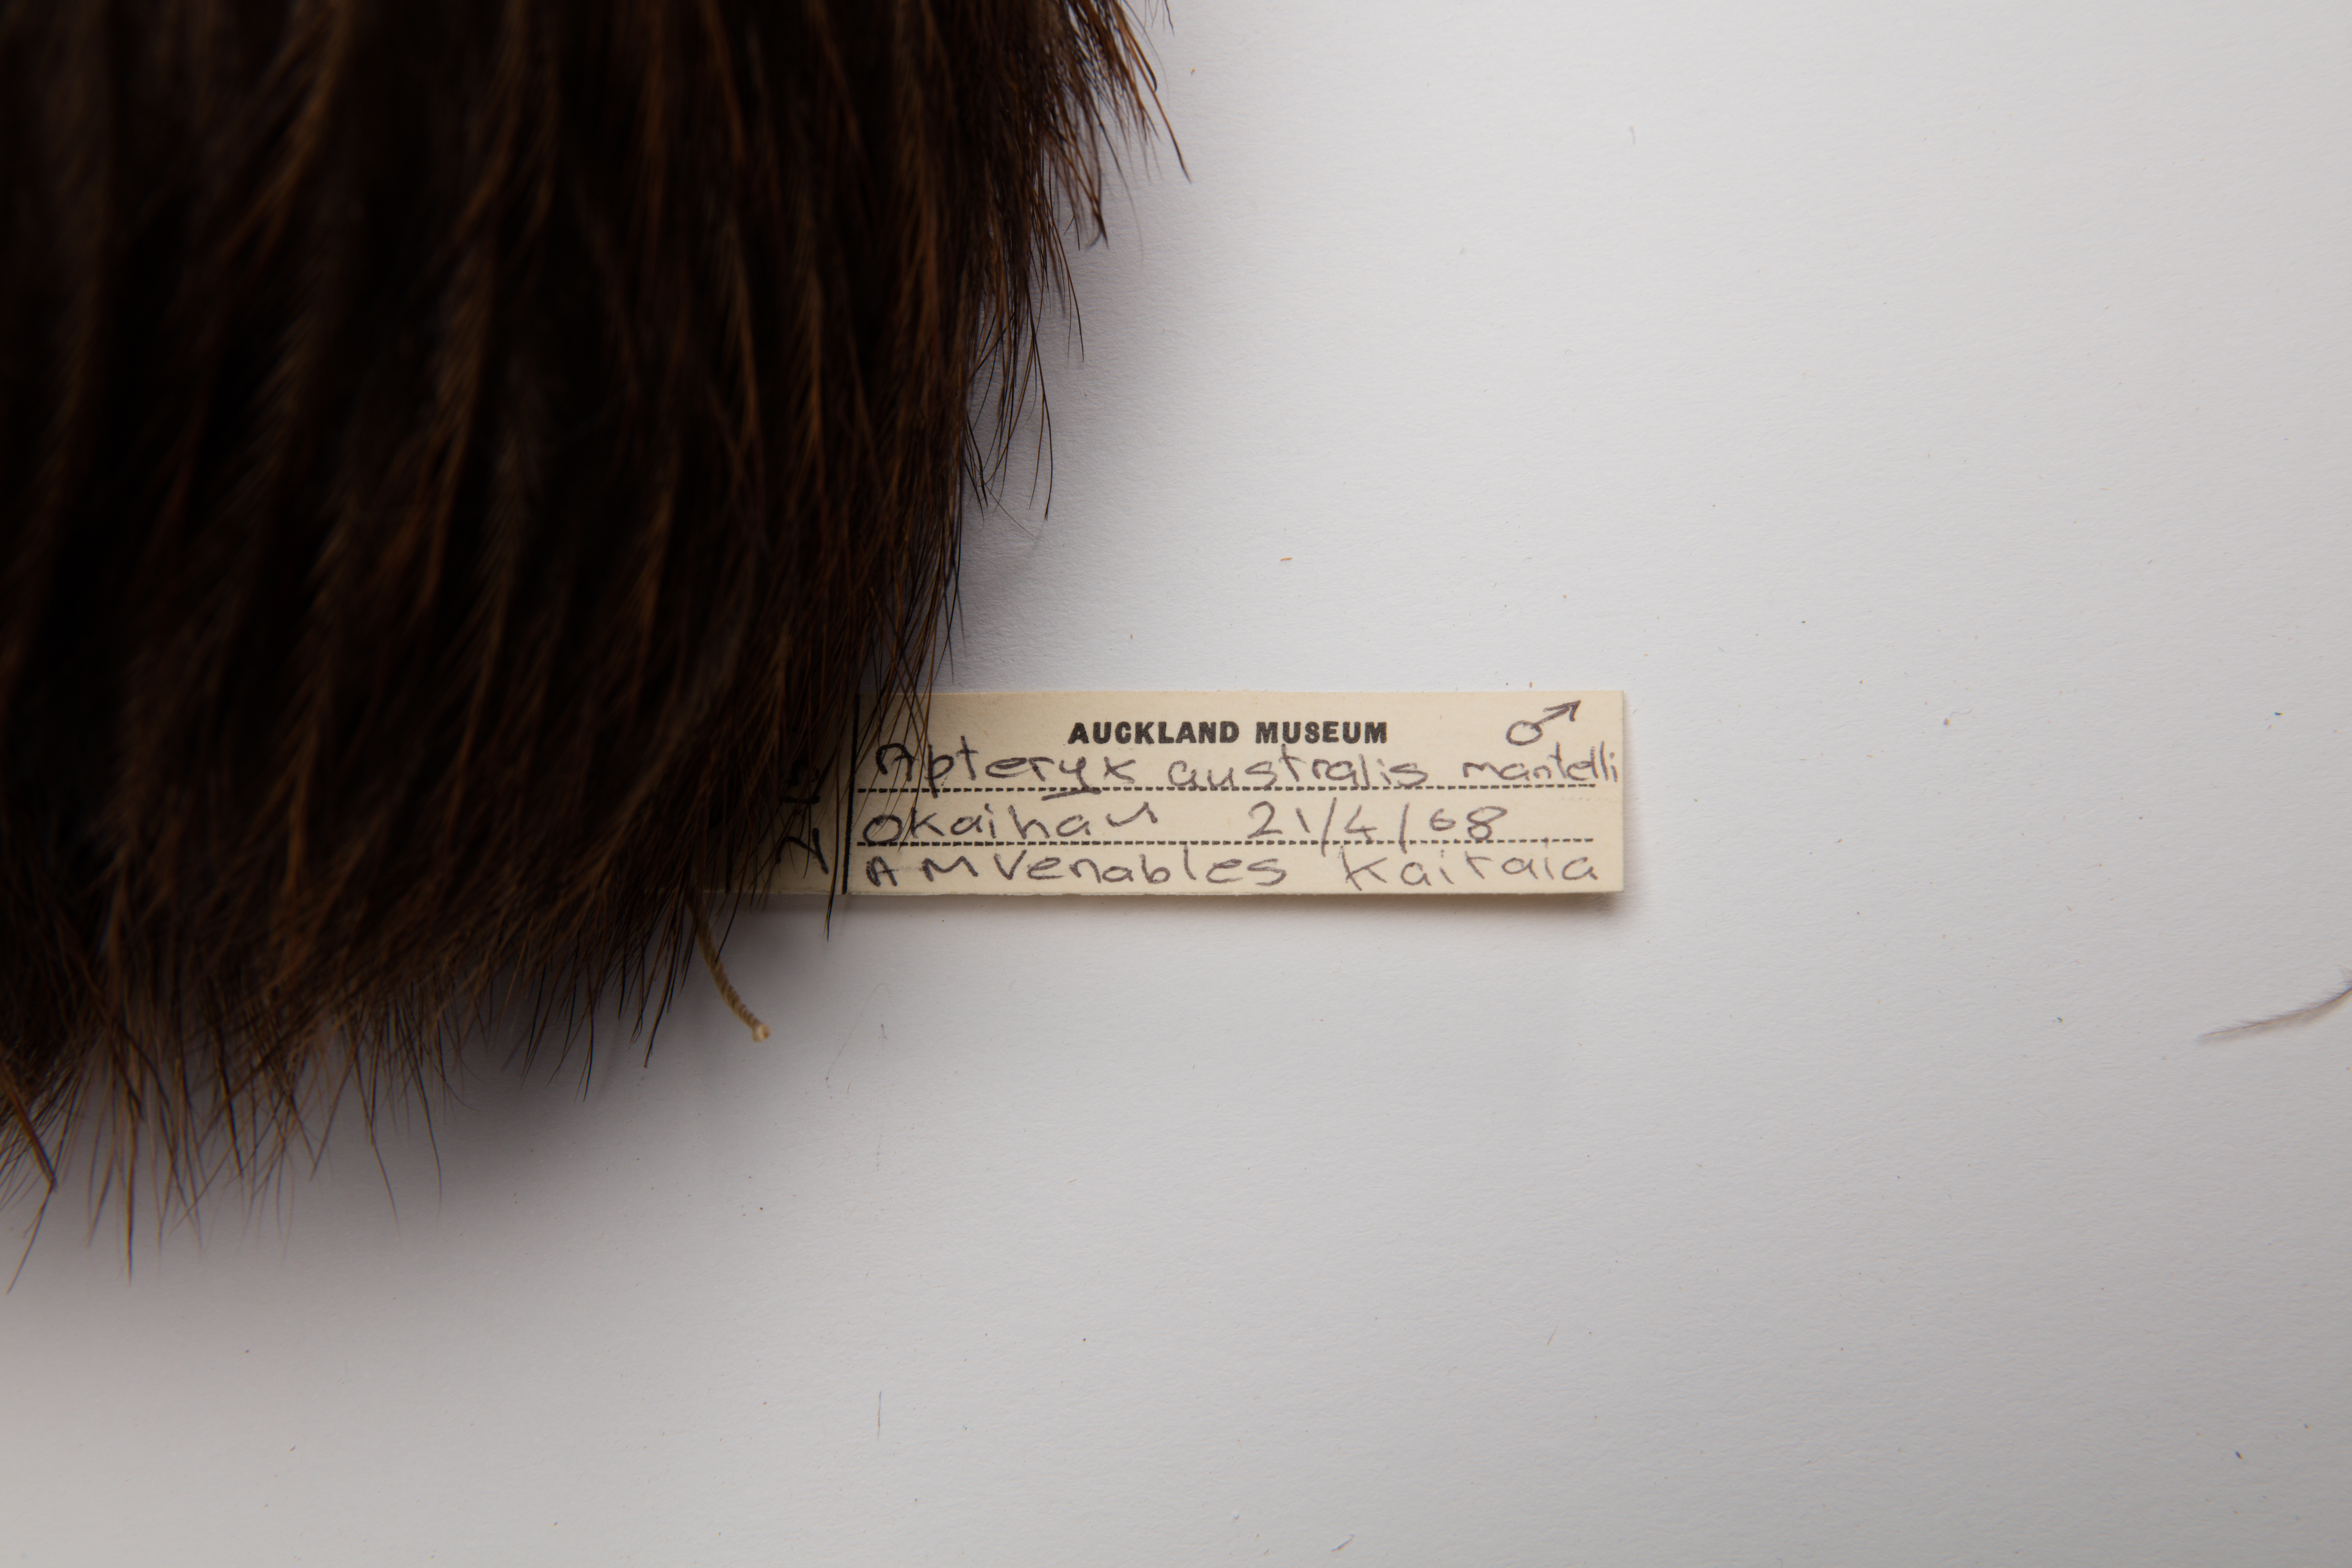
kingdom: Animalia
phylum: Chordata
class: Aves
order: Apterygiformes
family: Apterygidae
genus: Apteryx
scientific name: Apteryx mantelli
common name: North island brown kiwi
